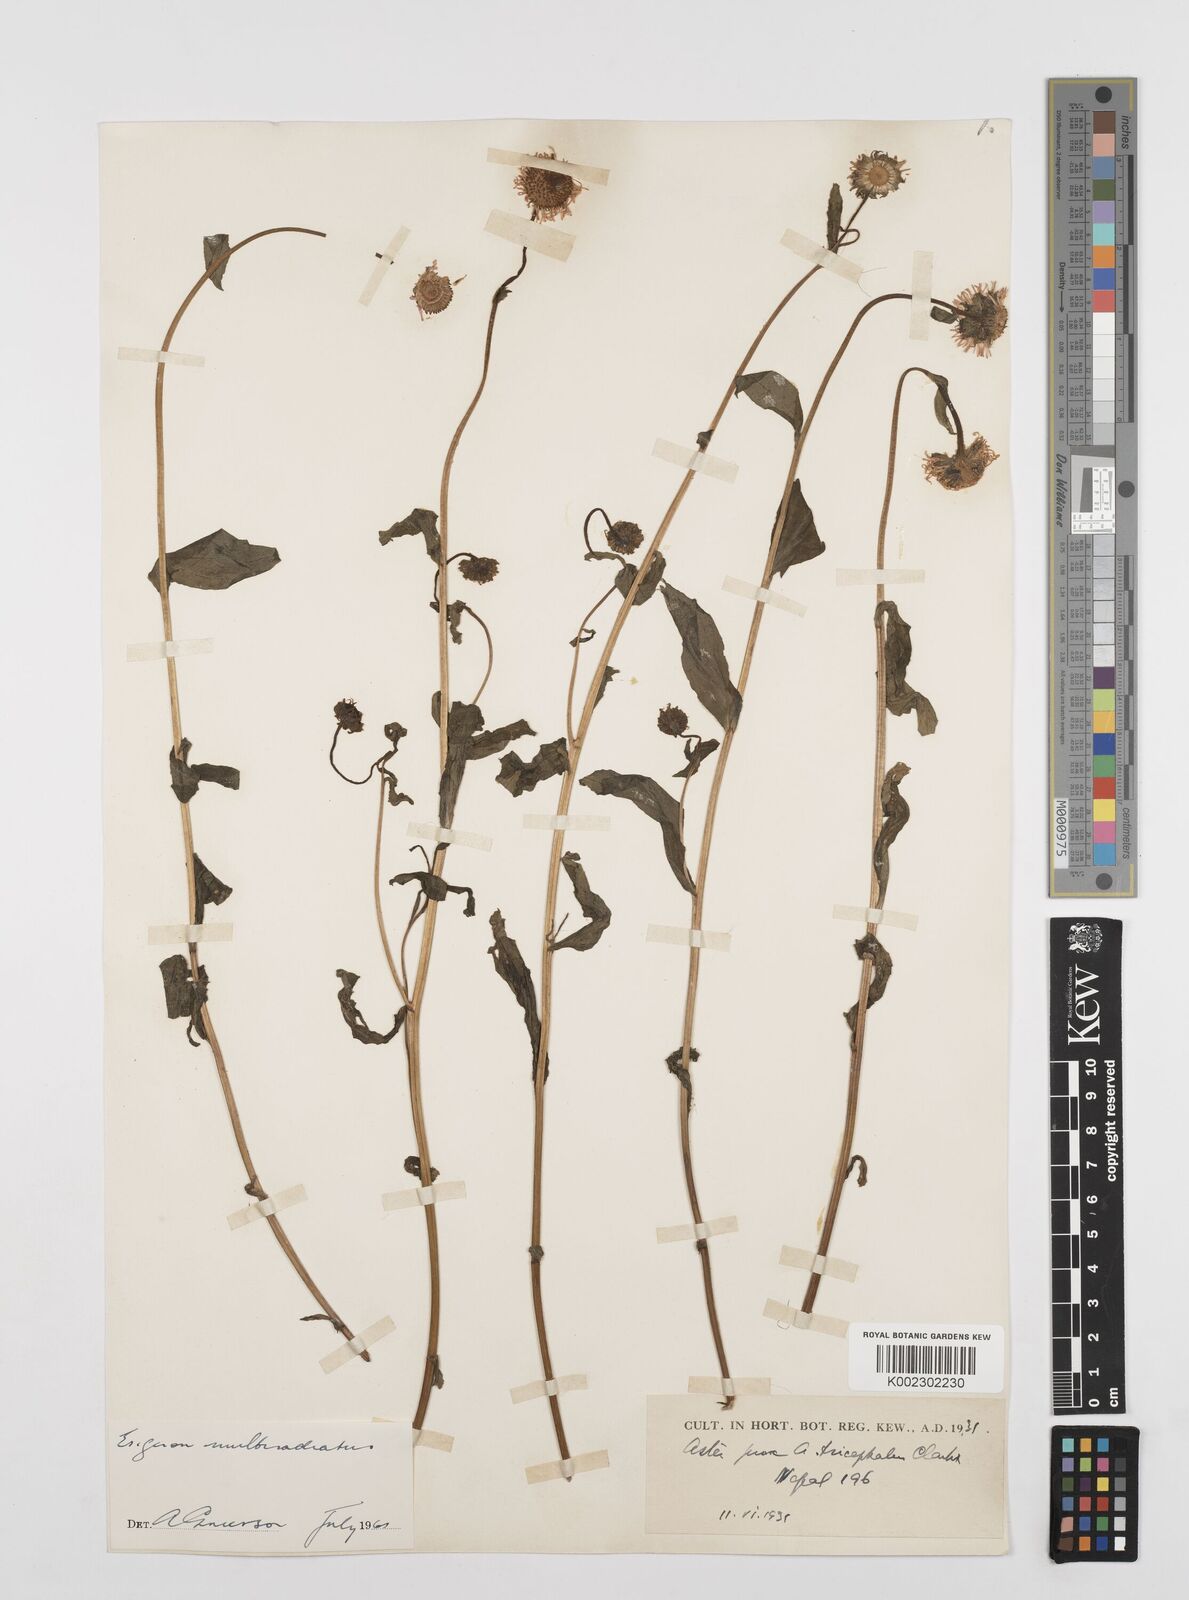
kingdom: Plantae
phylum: Tracheophyta
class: Magnoliopsida
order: Asterales
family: Asteraceae
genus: Erigeron
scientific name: Erigeron multiradiatus
